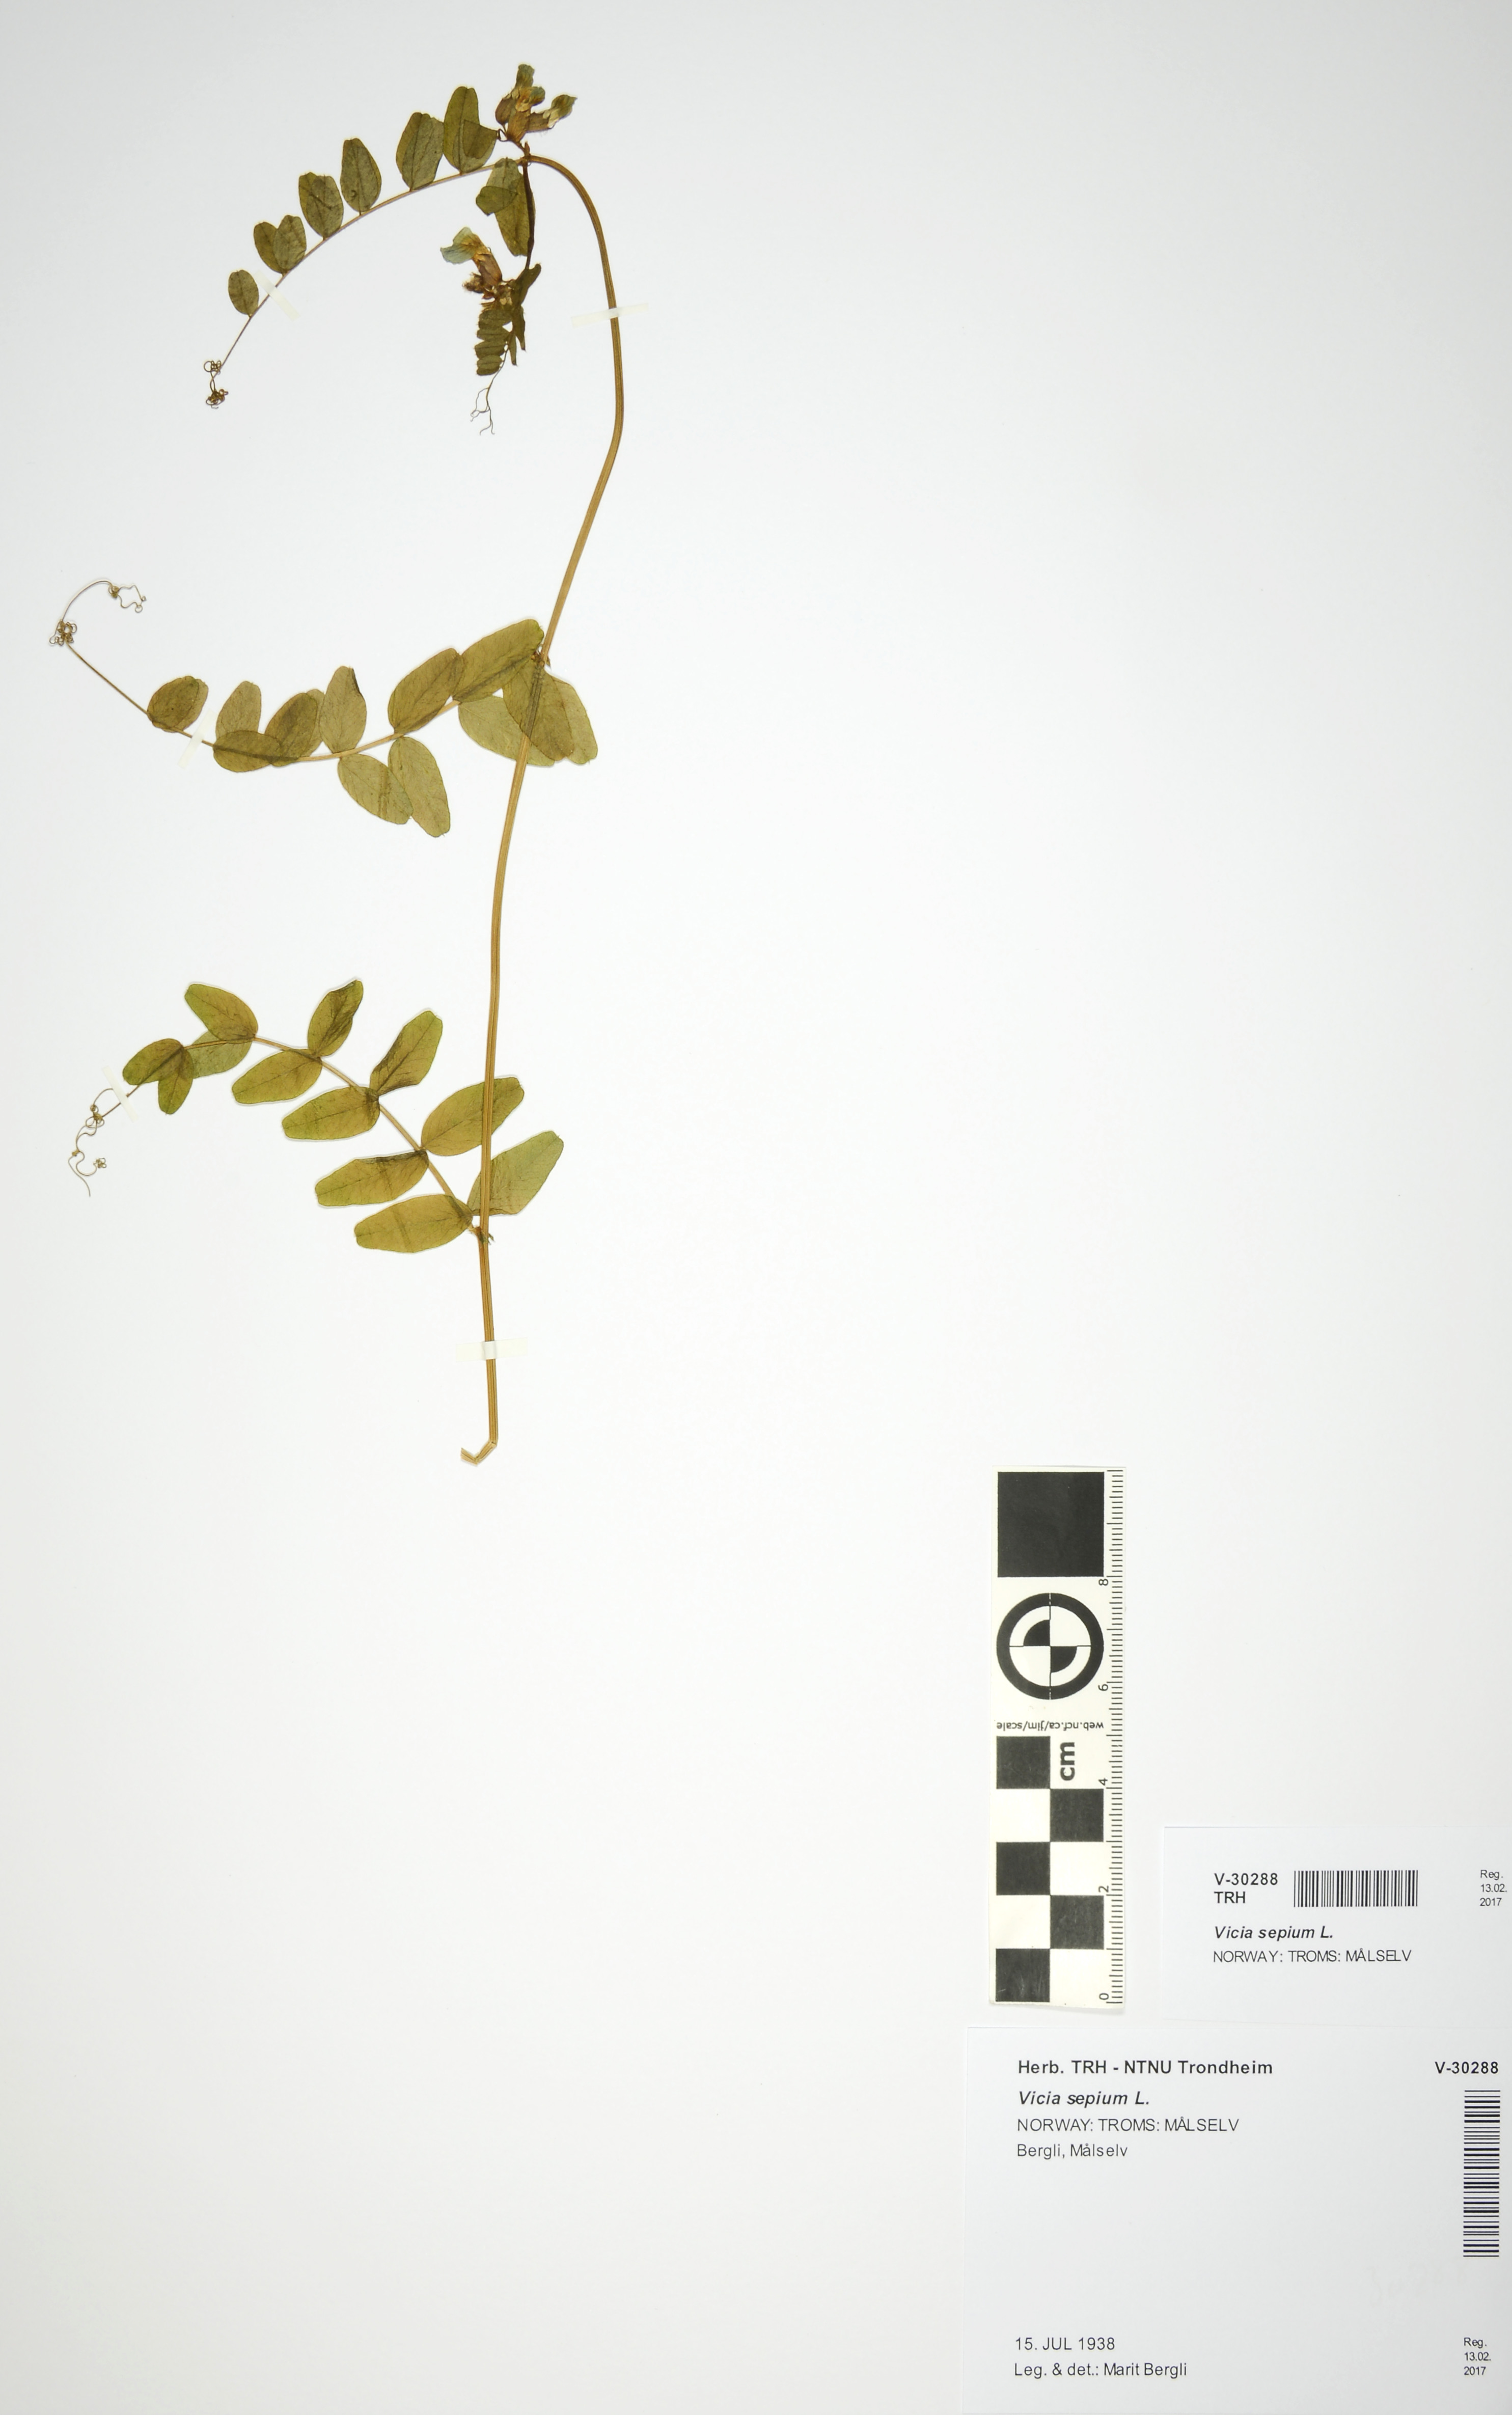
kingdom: Plantae
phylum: Tracheophyta
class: Magnoliopsida
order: Fabales
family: Fabaceae
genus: Vicia
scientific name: Vicia sepium
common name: Bush vetch
